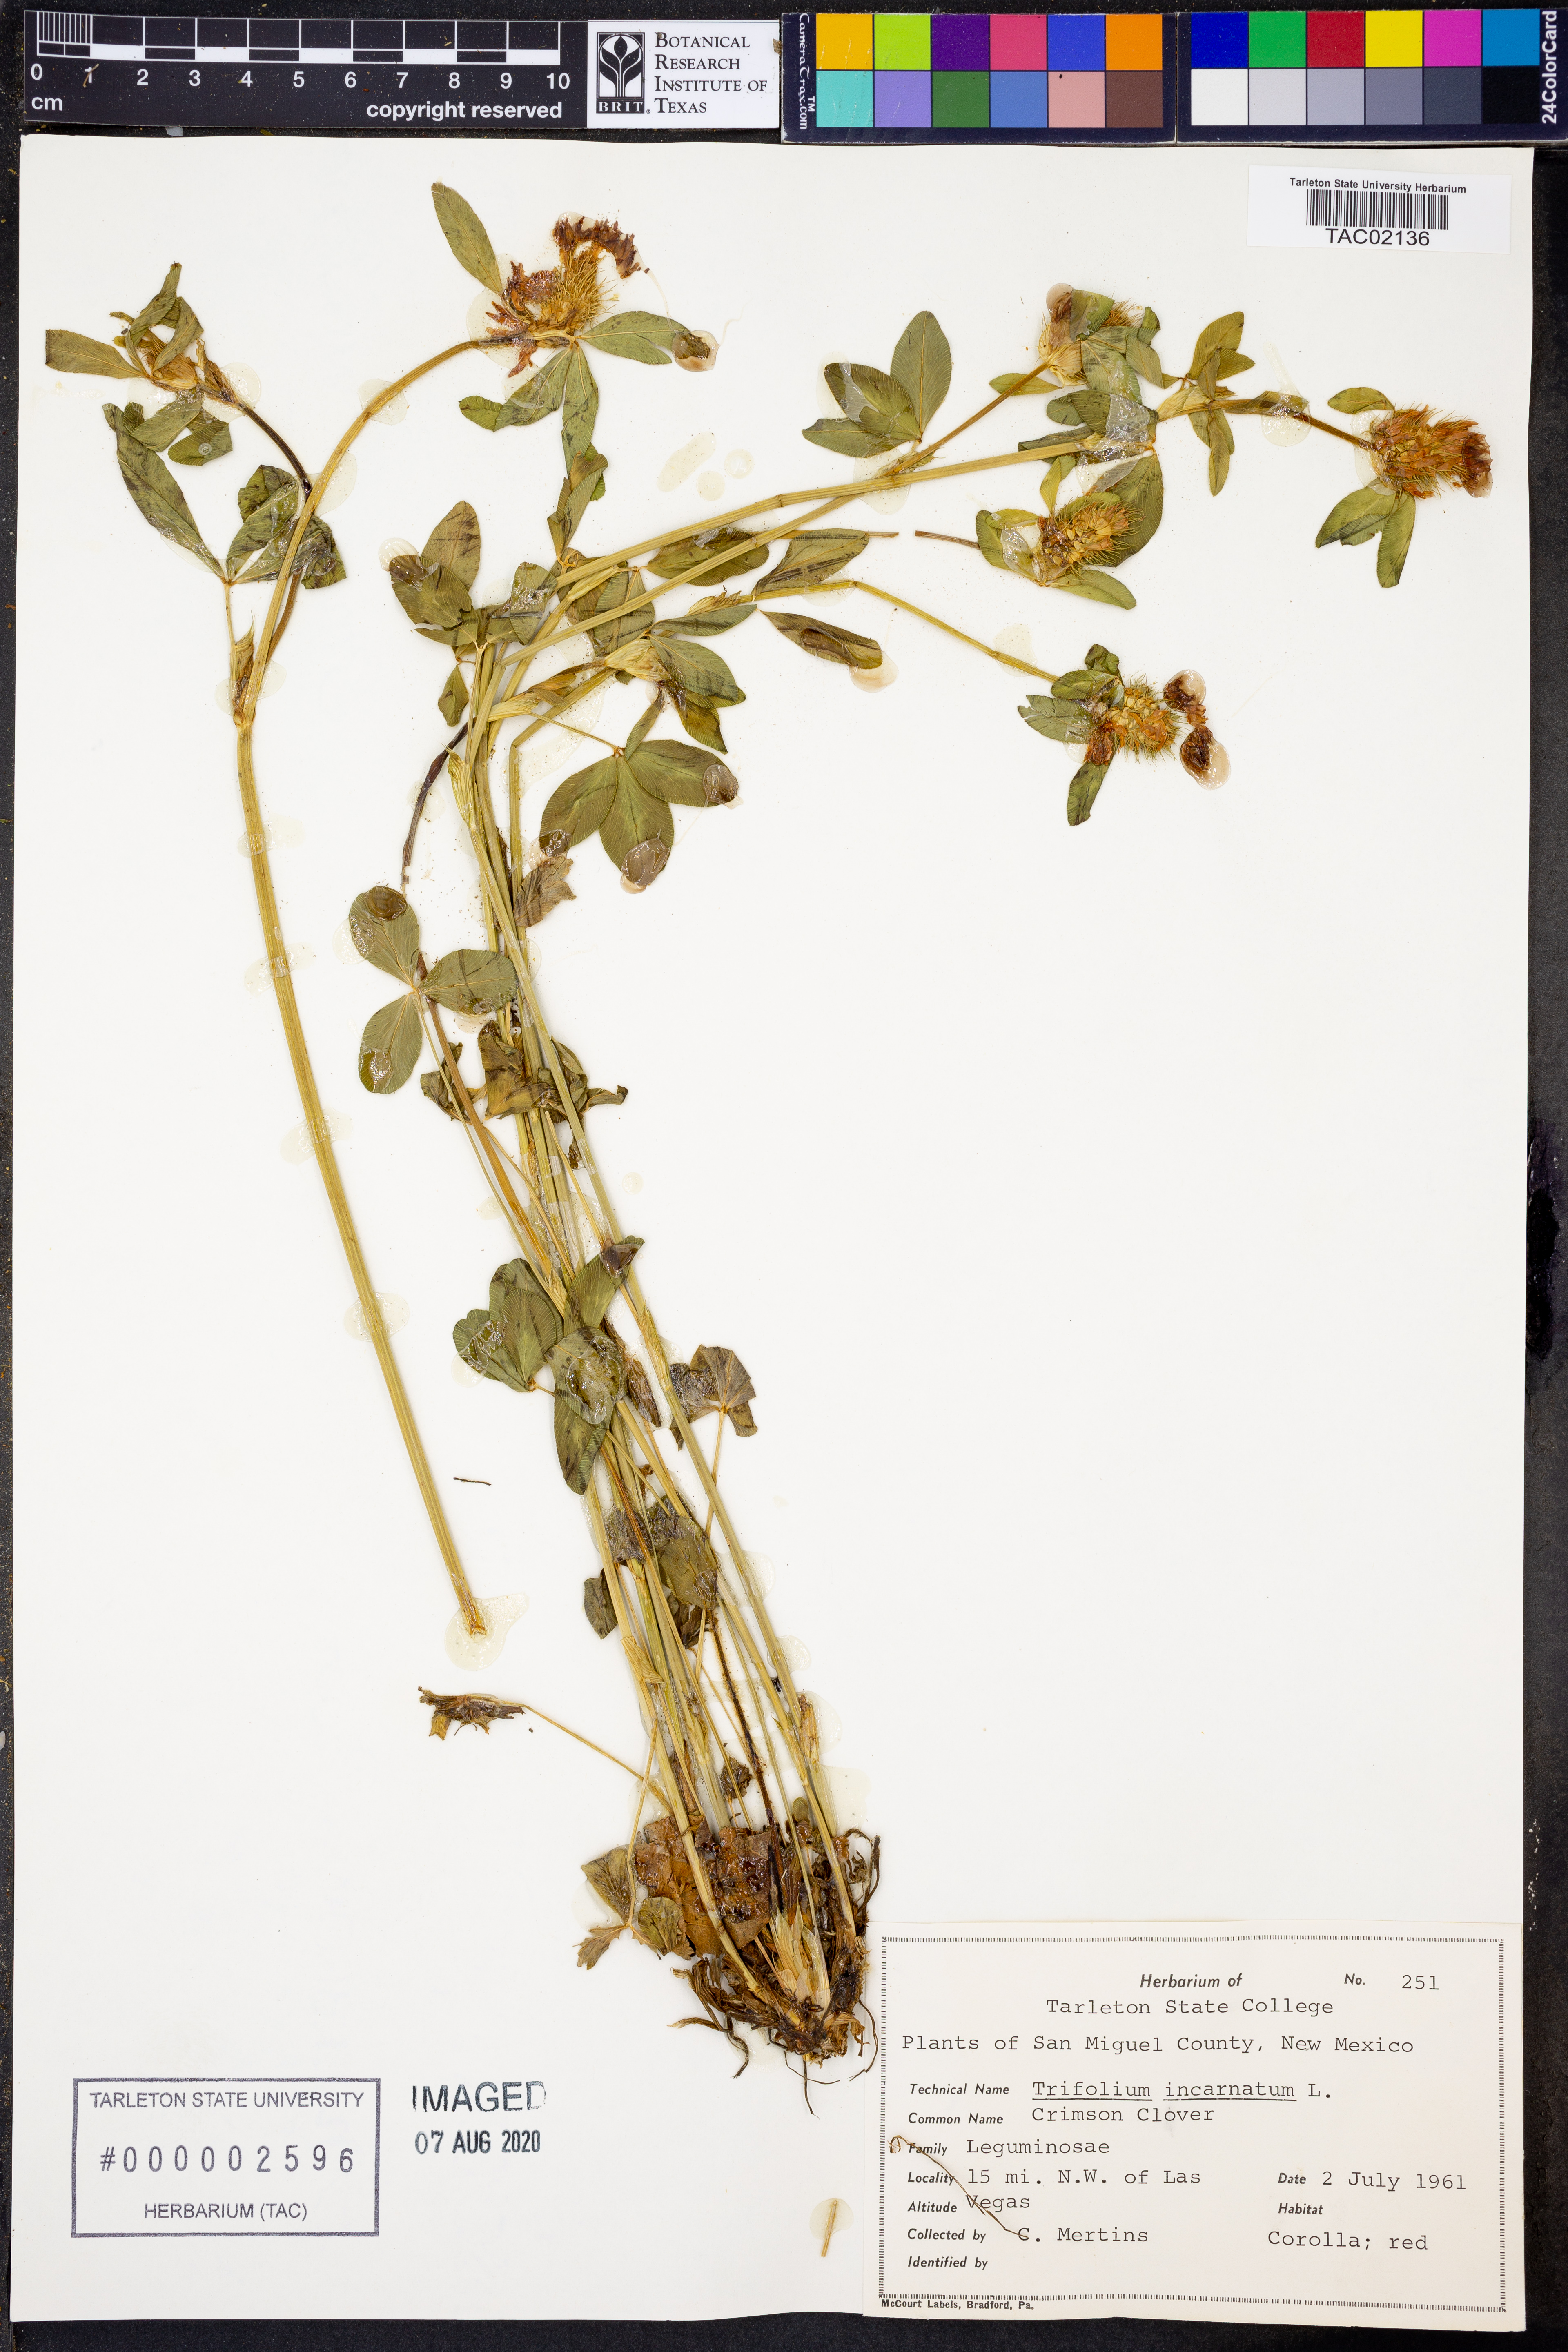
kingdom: Plantae
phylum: Tracheophyta
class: Magnoliopsida
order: Fabales
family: Fabaceae
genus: Trifolium
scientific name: Trifolium incarnatum
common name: Crimson clover
